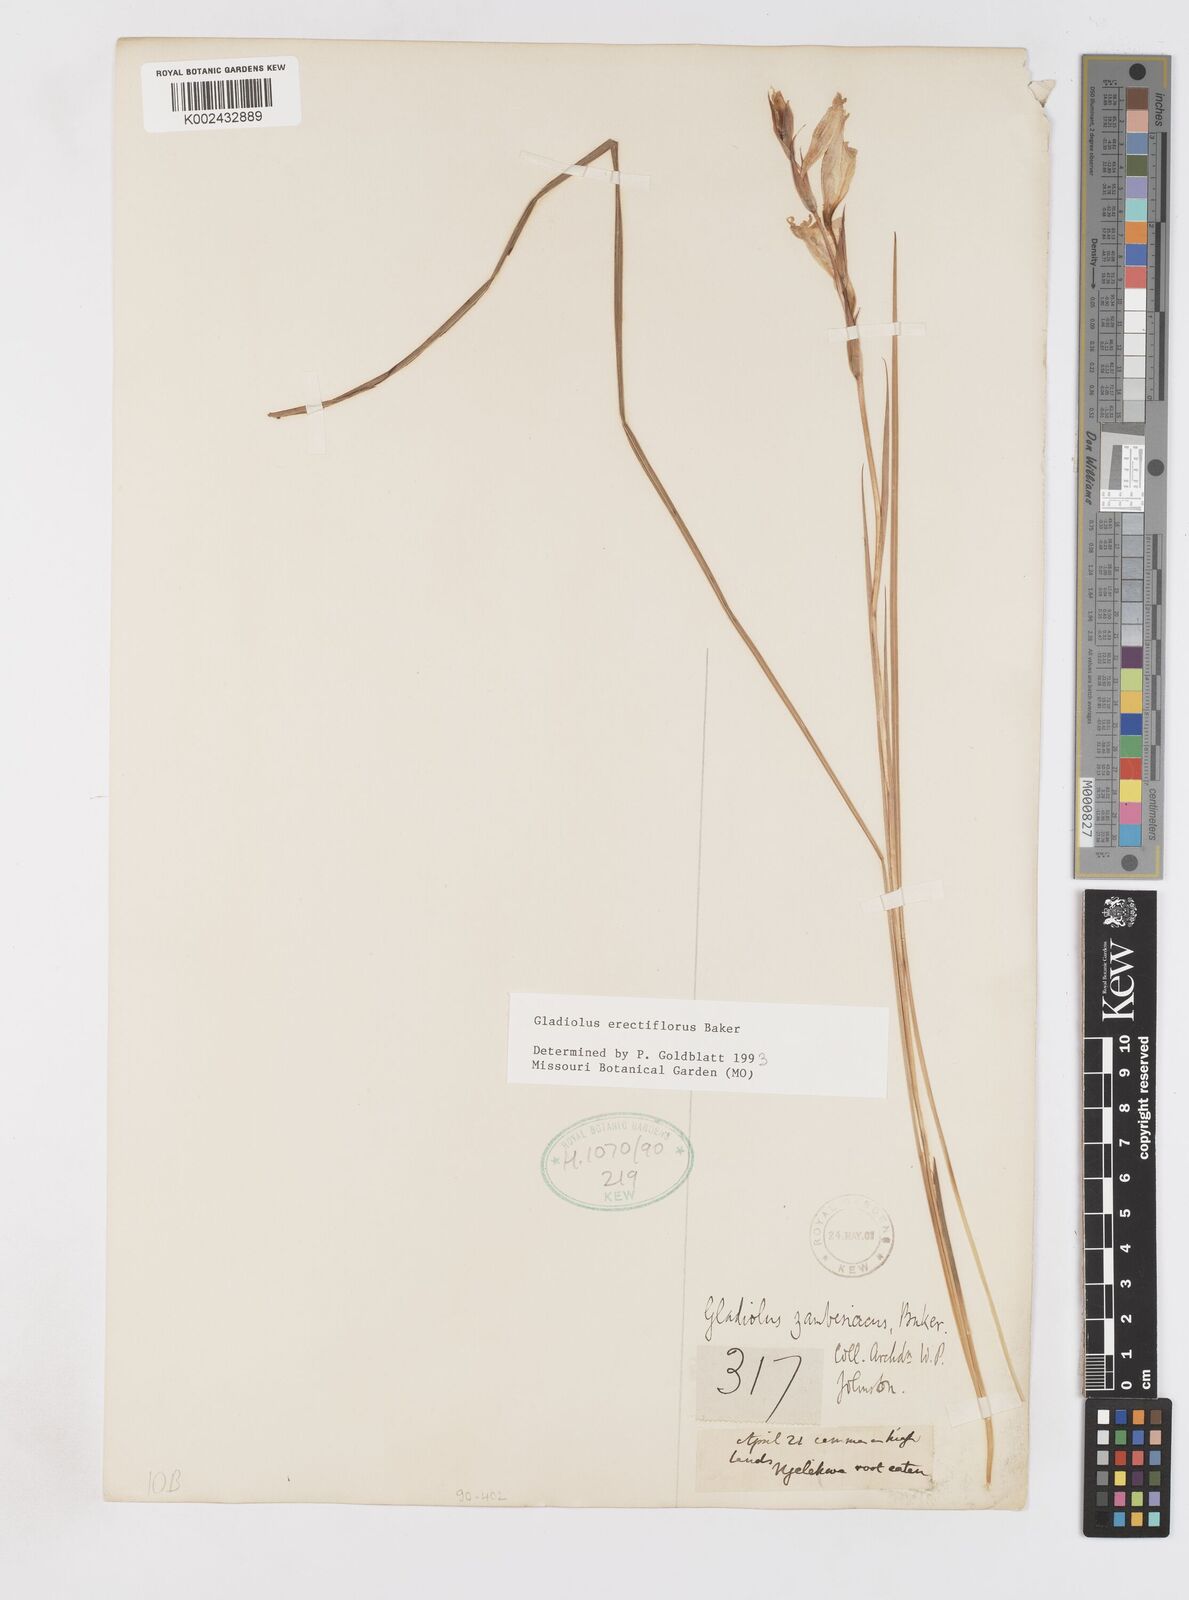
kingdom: Plantae
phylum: Tracheophyta
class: Liliopsida
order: Asparagales
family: Iridaceae
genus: Gladiolus
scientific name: Gladiolus erectiflorus
